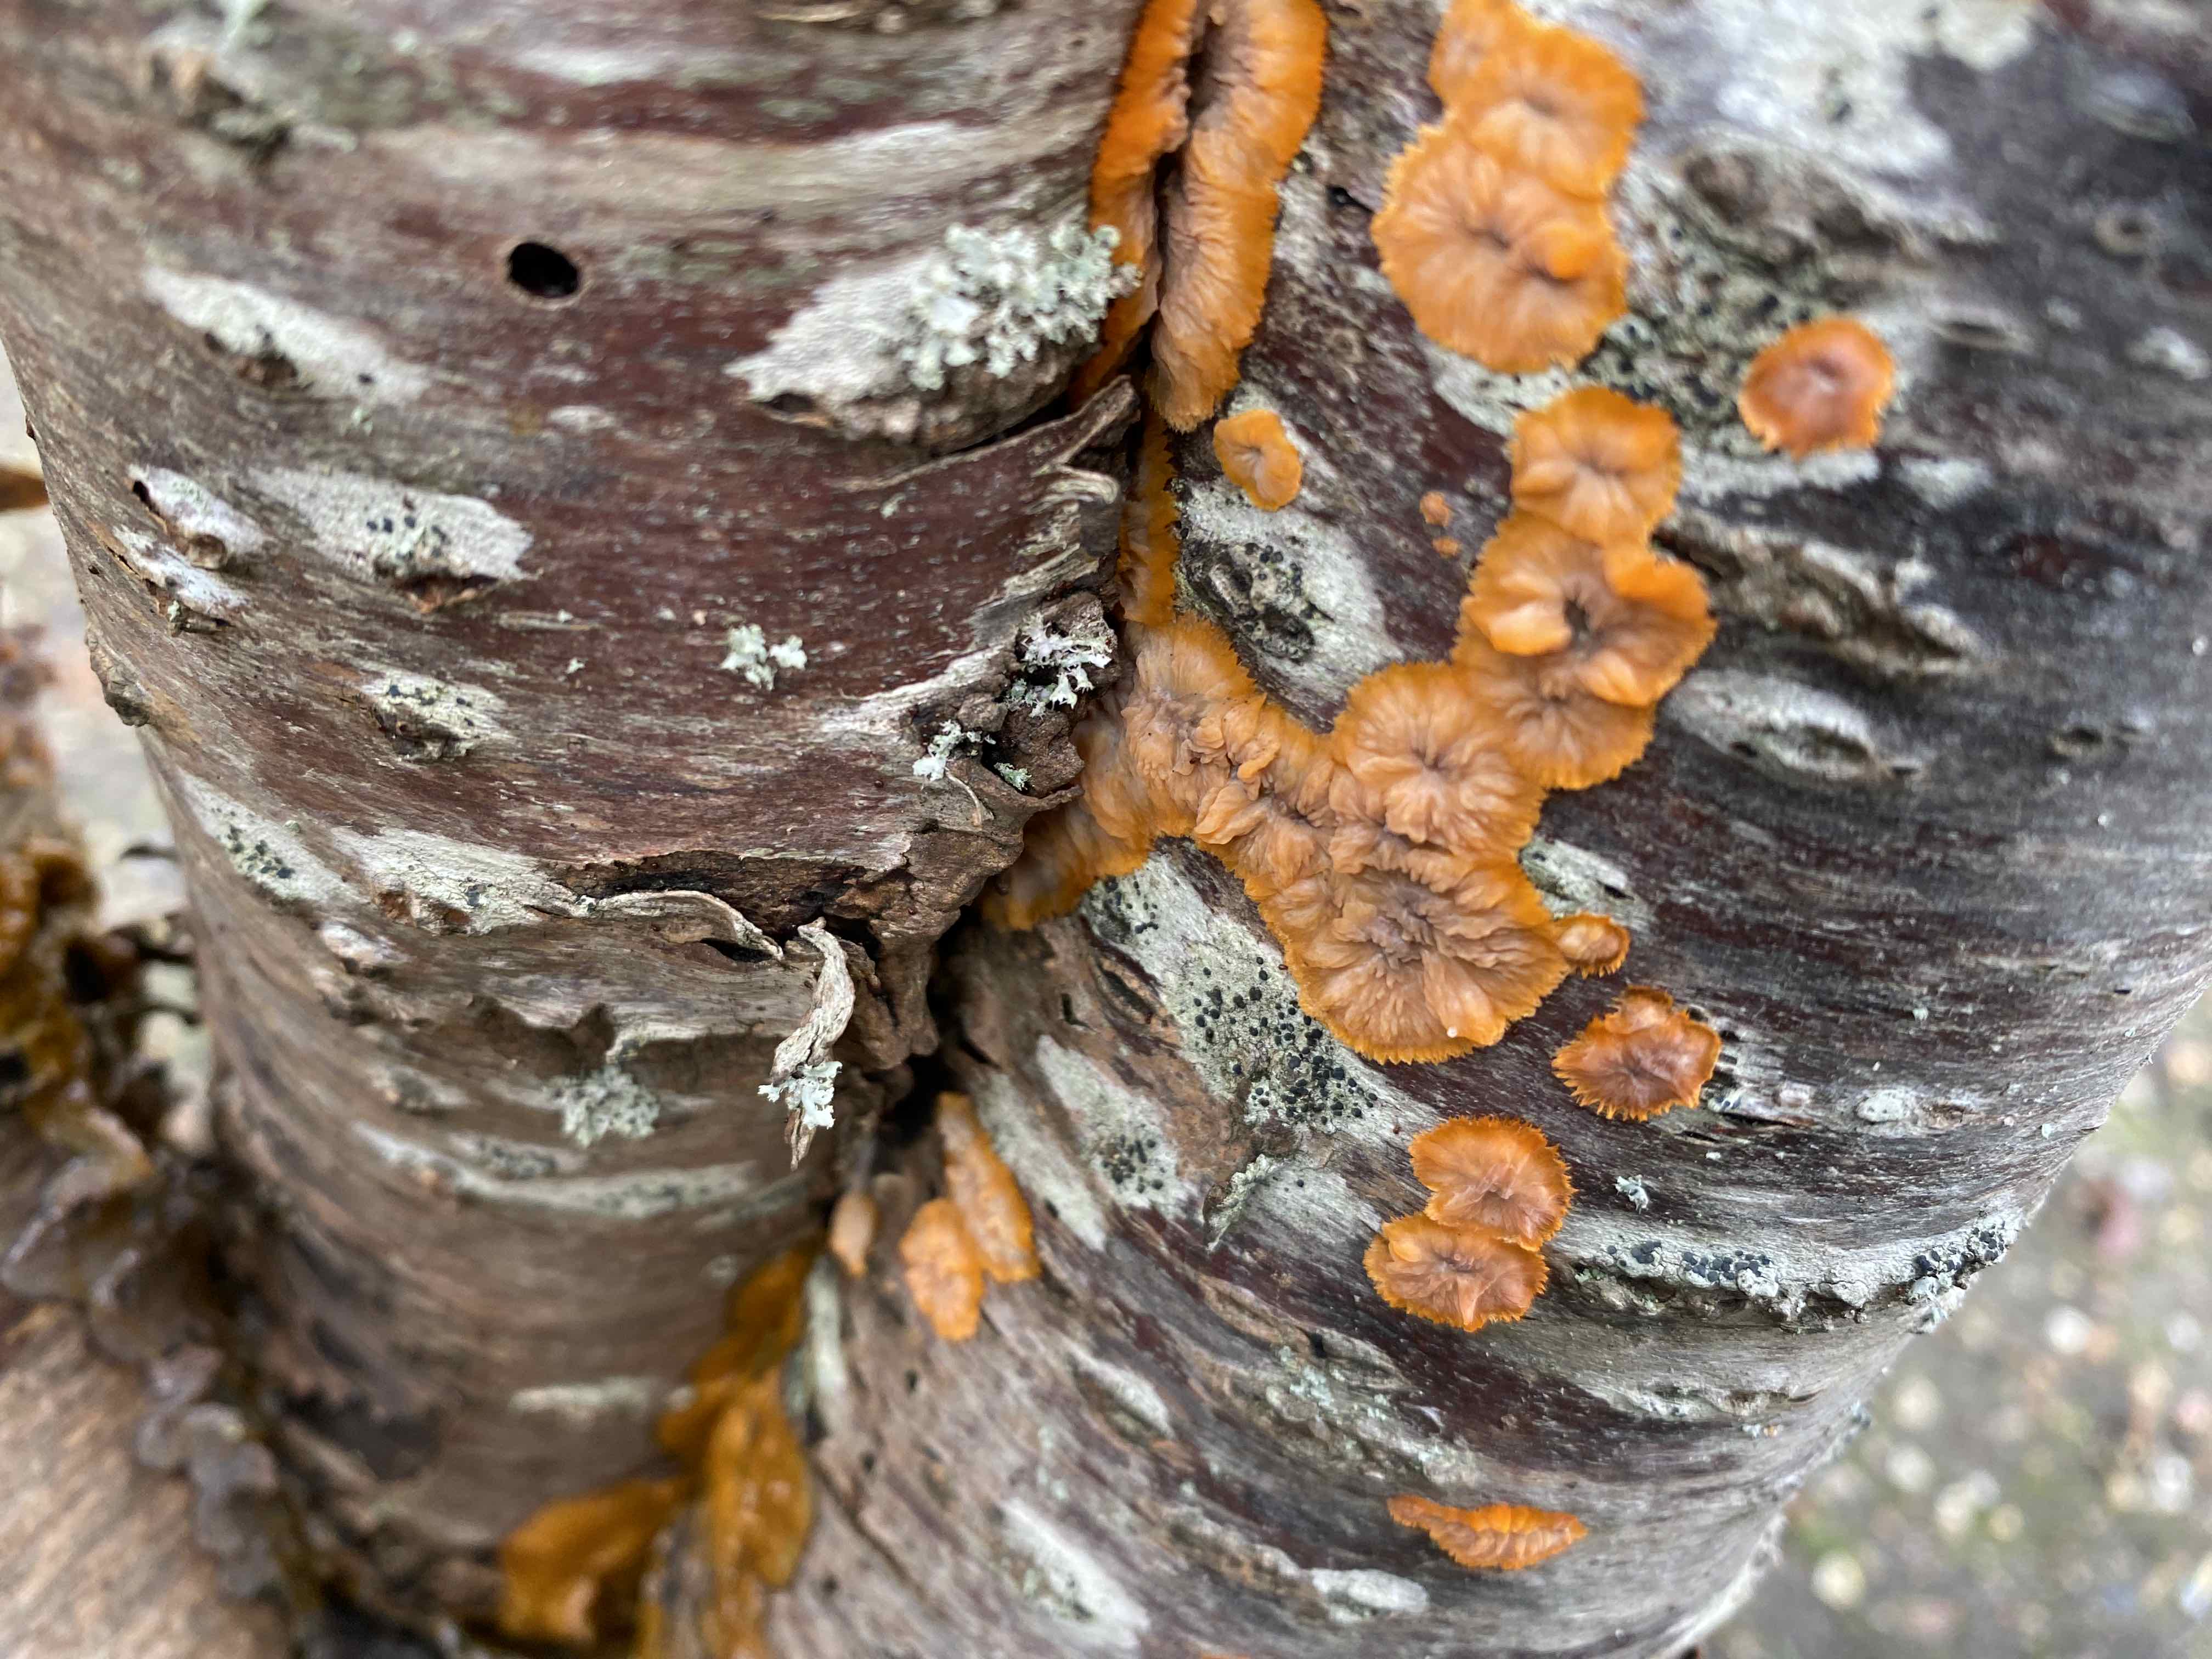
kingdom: Fungi
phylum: Basidiomycota
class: Agaricomycetes
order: Polyporales
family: Meruliaceae
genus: Phlebia
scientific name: Phlebia radiata
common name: stråle-åresvamp
